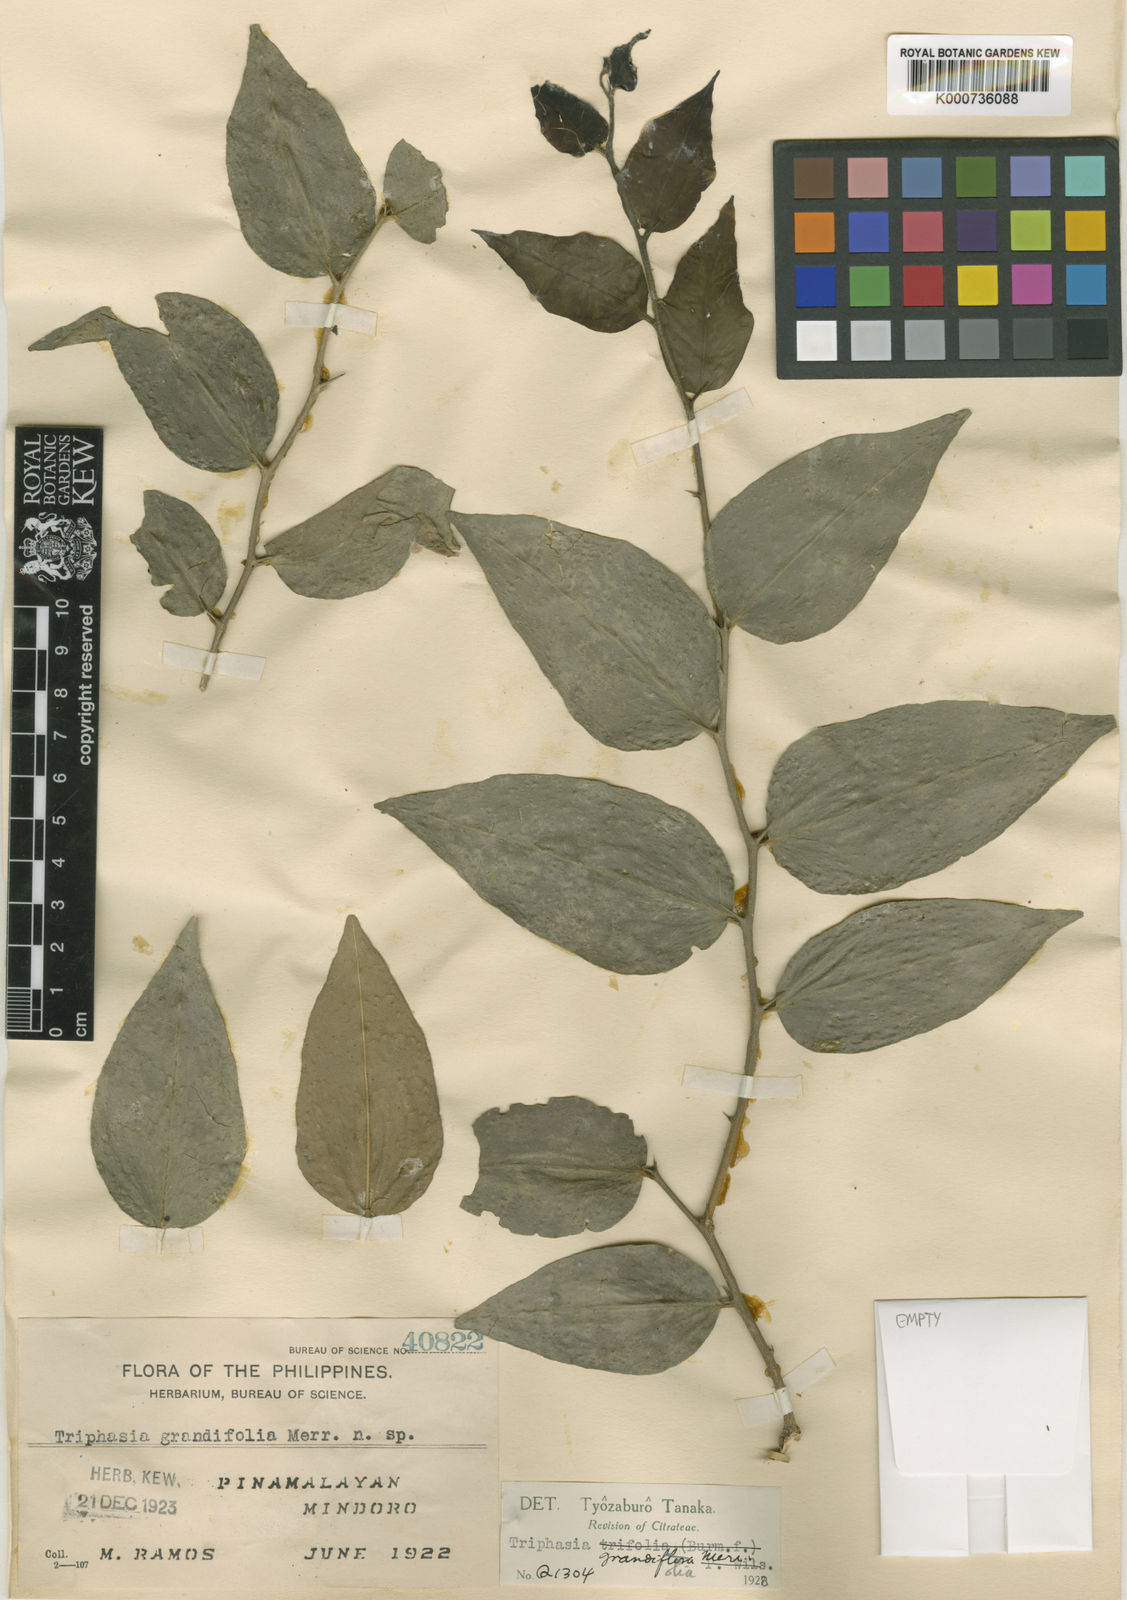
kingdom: Plantae
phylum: Tracheophyta
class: Magnoliopsida
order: Sapindales
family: Rutaceae
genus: Triphasia
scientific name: Triphasia grandifolia
